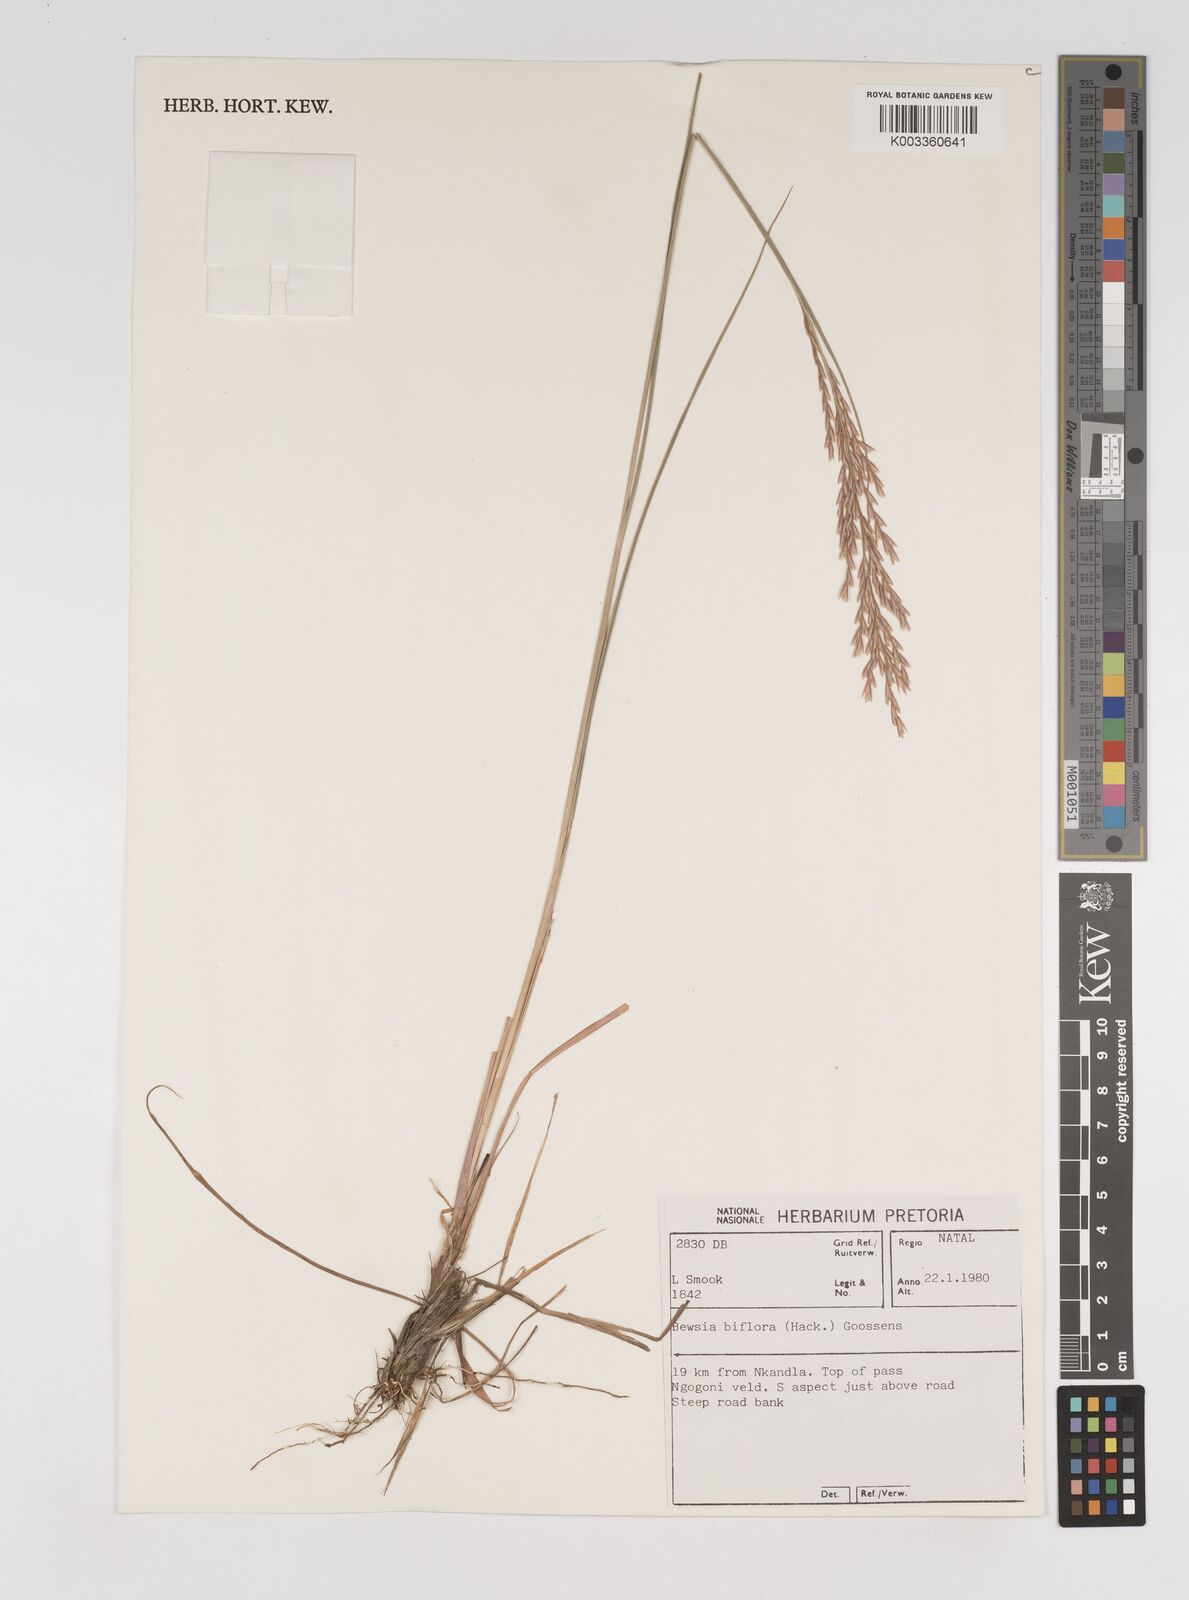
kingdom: Plantae
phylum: Tracheophyta
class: Liliopsida
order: Poales
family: Poaceae
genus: Bewsia
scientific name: Bewsia biflora
